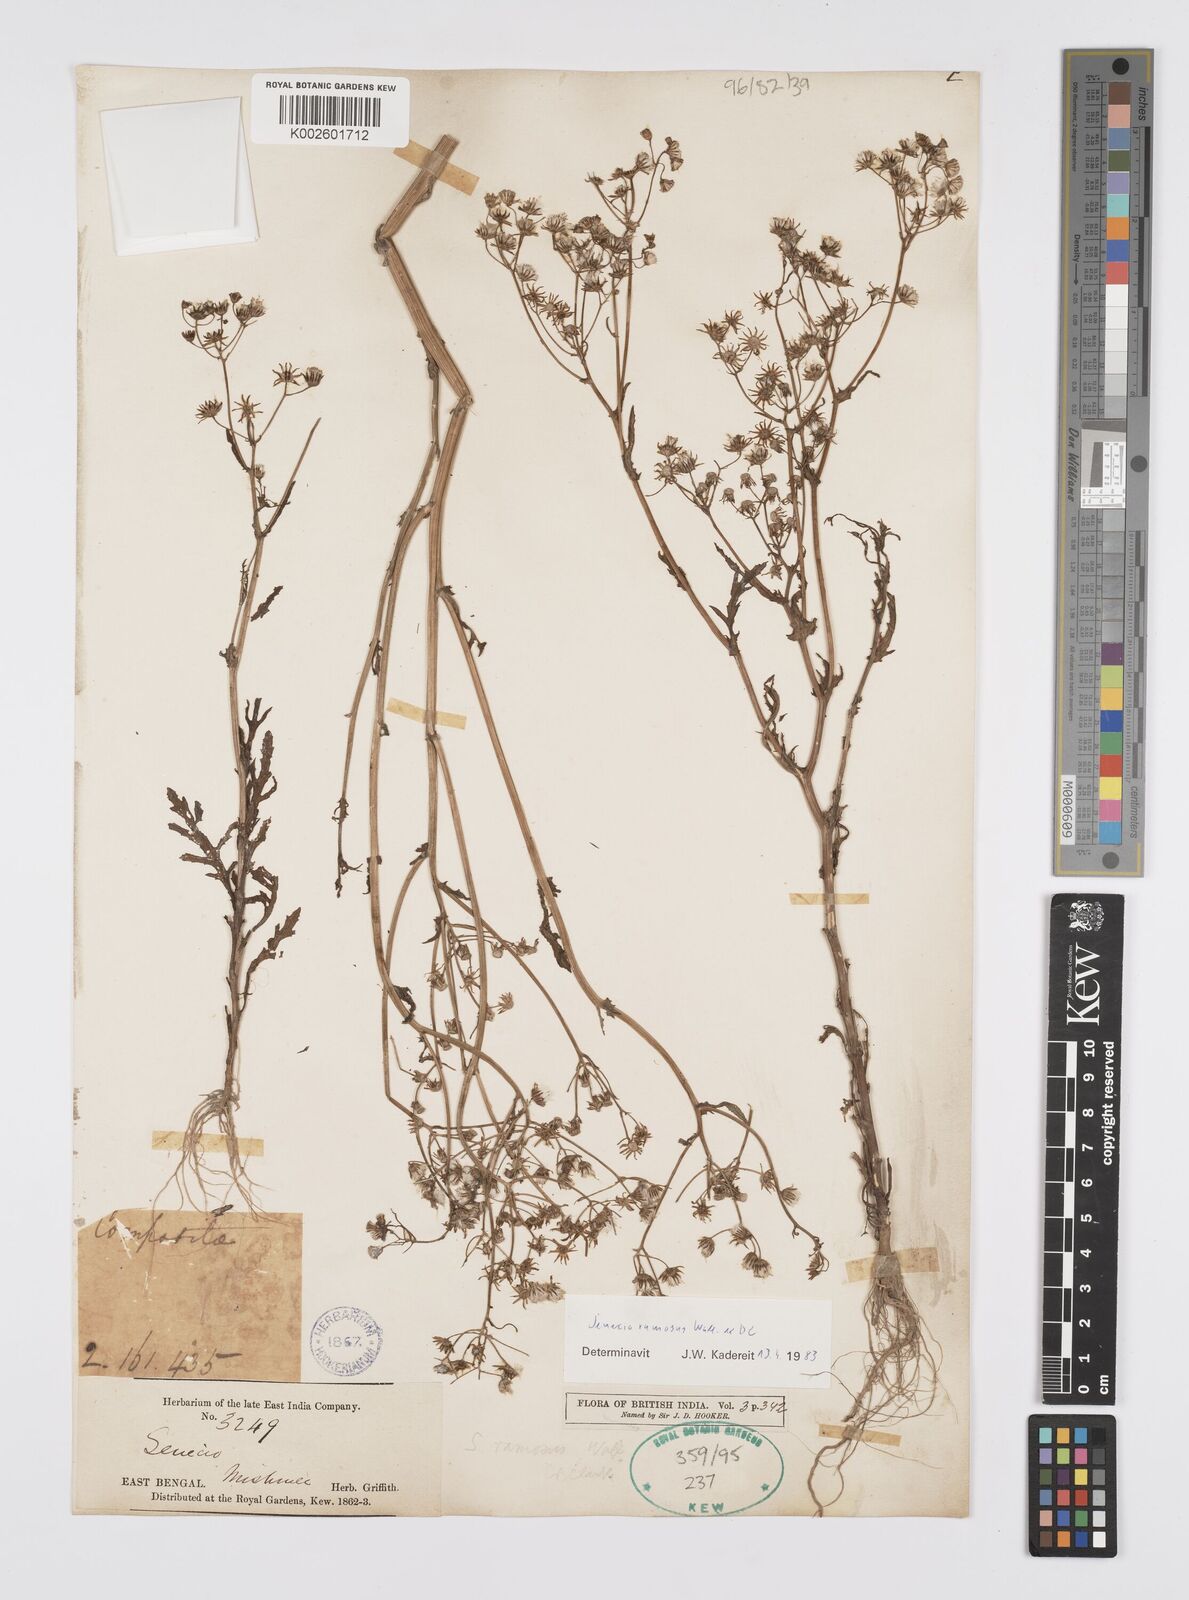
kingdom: Plantae
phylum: Tracheophyta
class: Magnoliopsida
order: Asterales
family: Asteraceae
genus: Senecio
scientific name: Senecio ramosus
